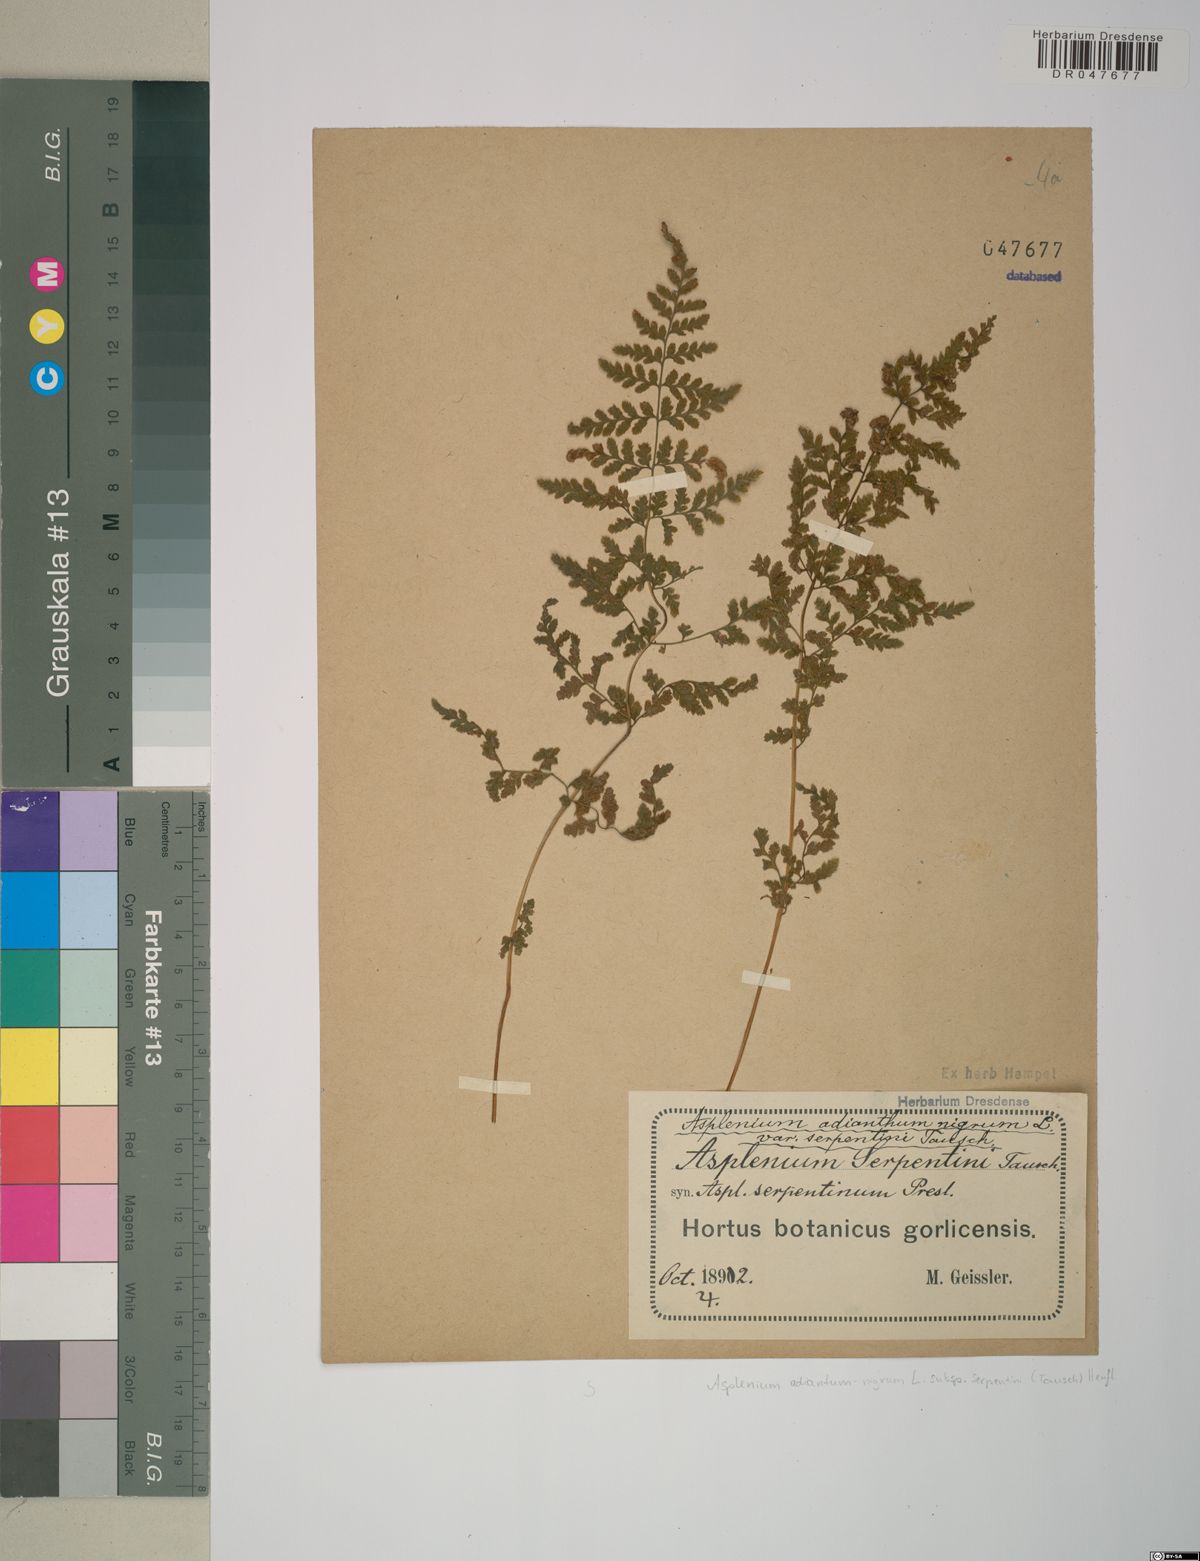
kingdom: Plantae
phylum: Tracheophyta
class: Polypodiopsida
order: Polypodiales
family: Aspleniaceae
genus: Asplenium
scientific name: Asplenium cuneifolium
